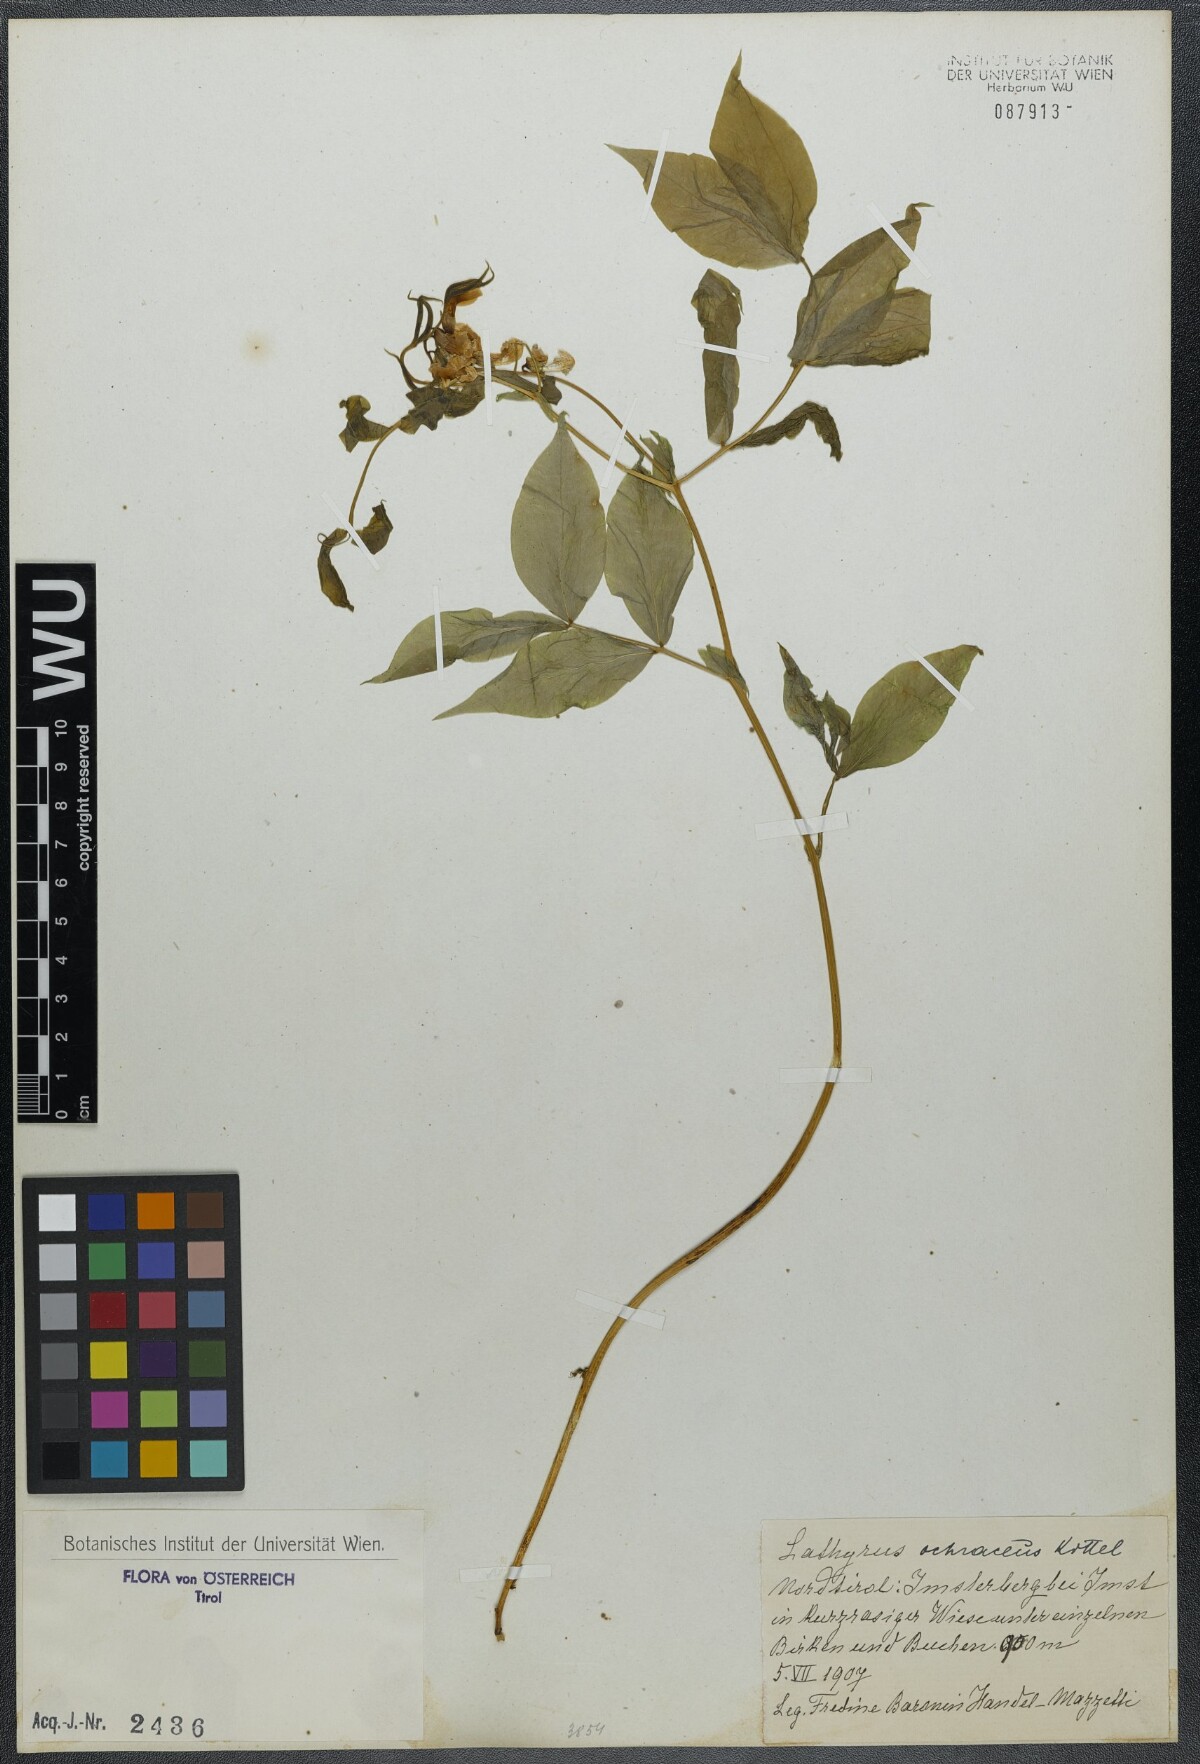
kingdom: Plantae
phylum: Tracheophyta
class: Magnoliopsida
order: Fabales
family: Fabaceae
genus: Lathyrus
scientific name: Lathyrus laevigatus
